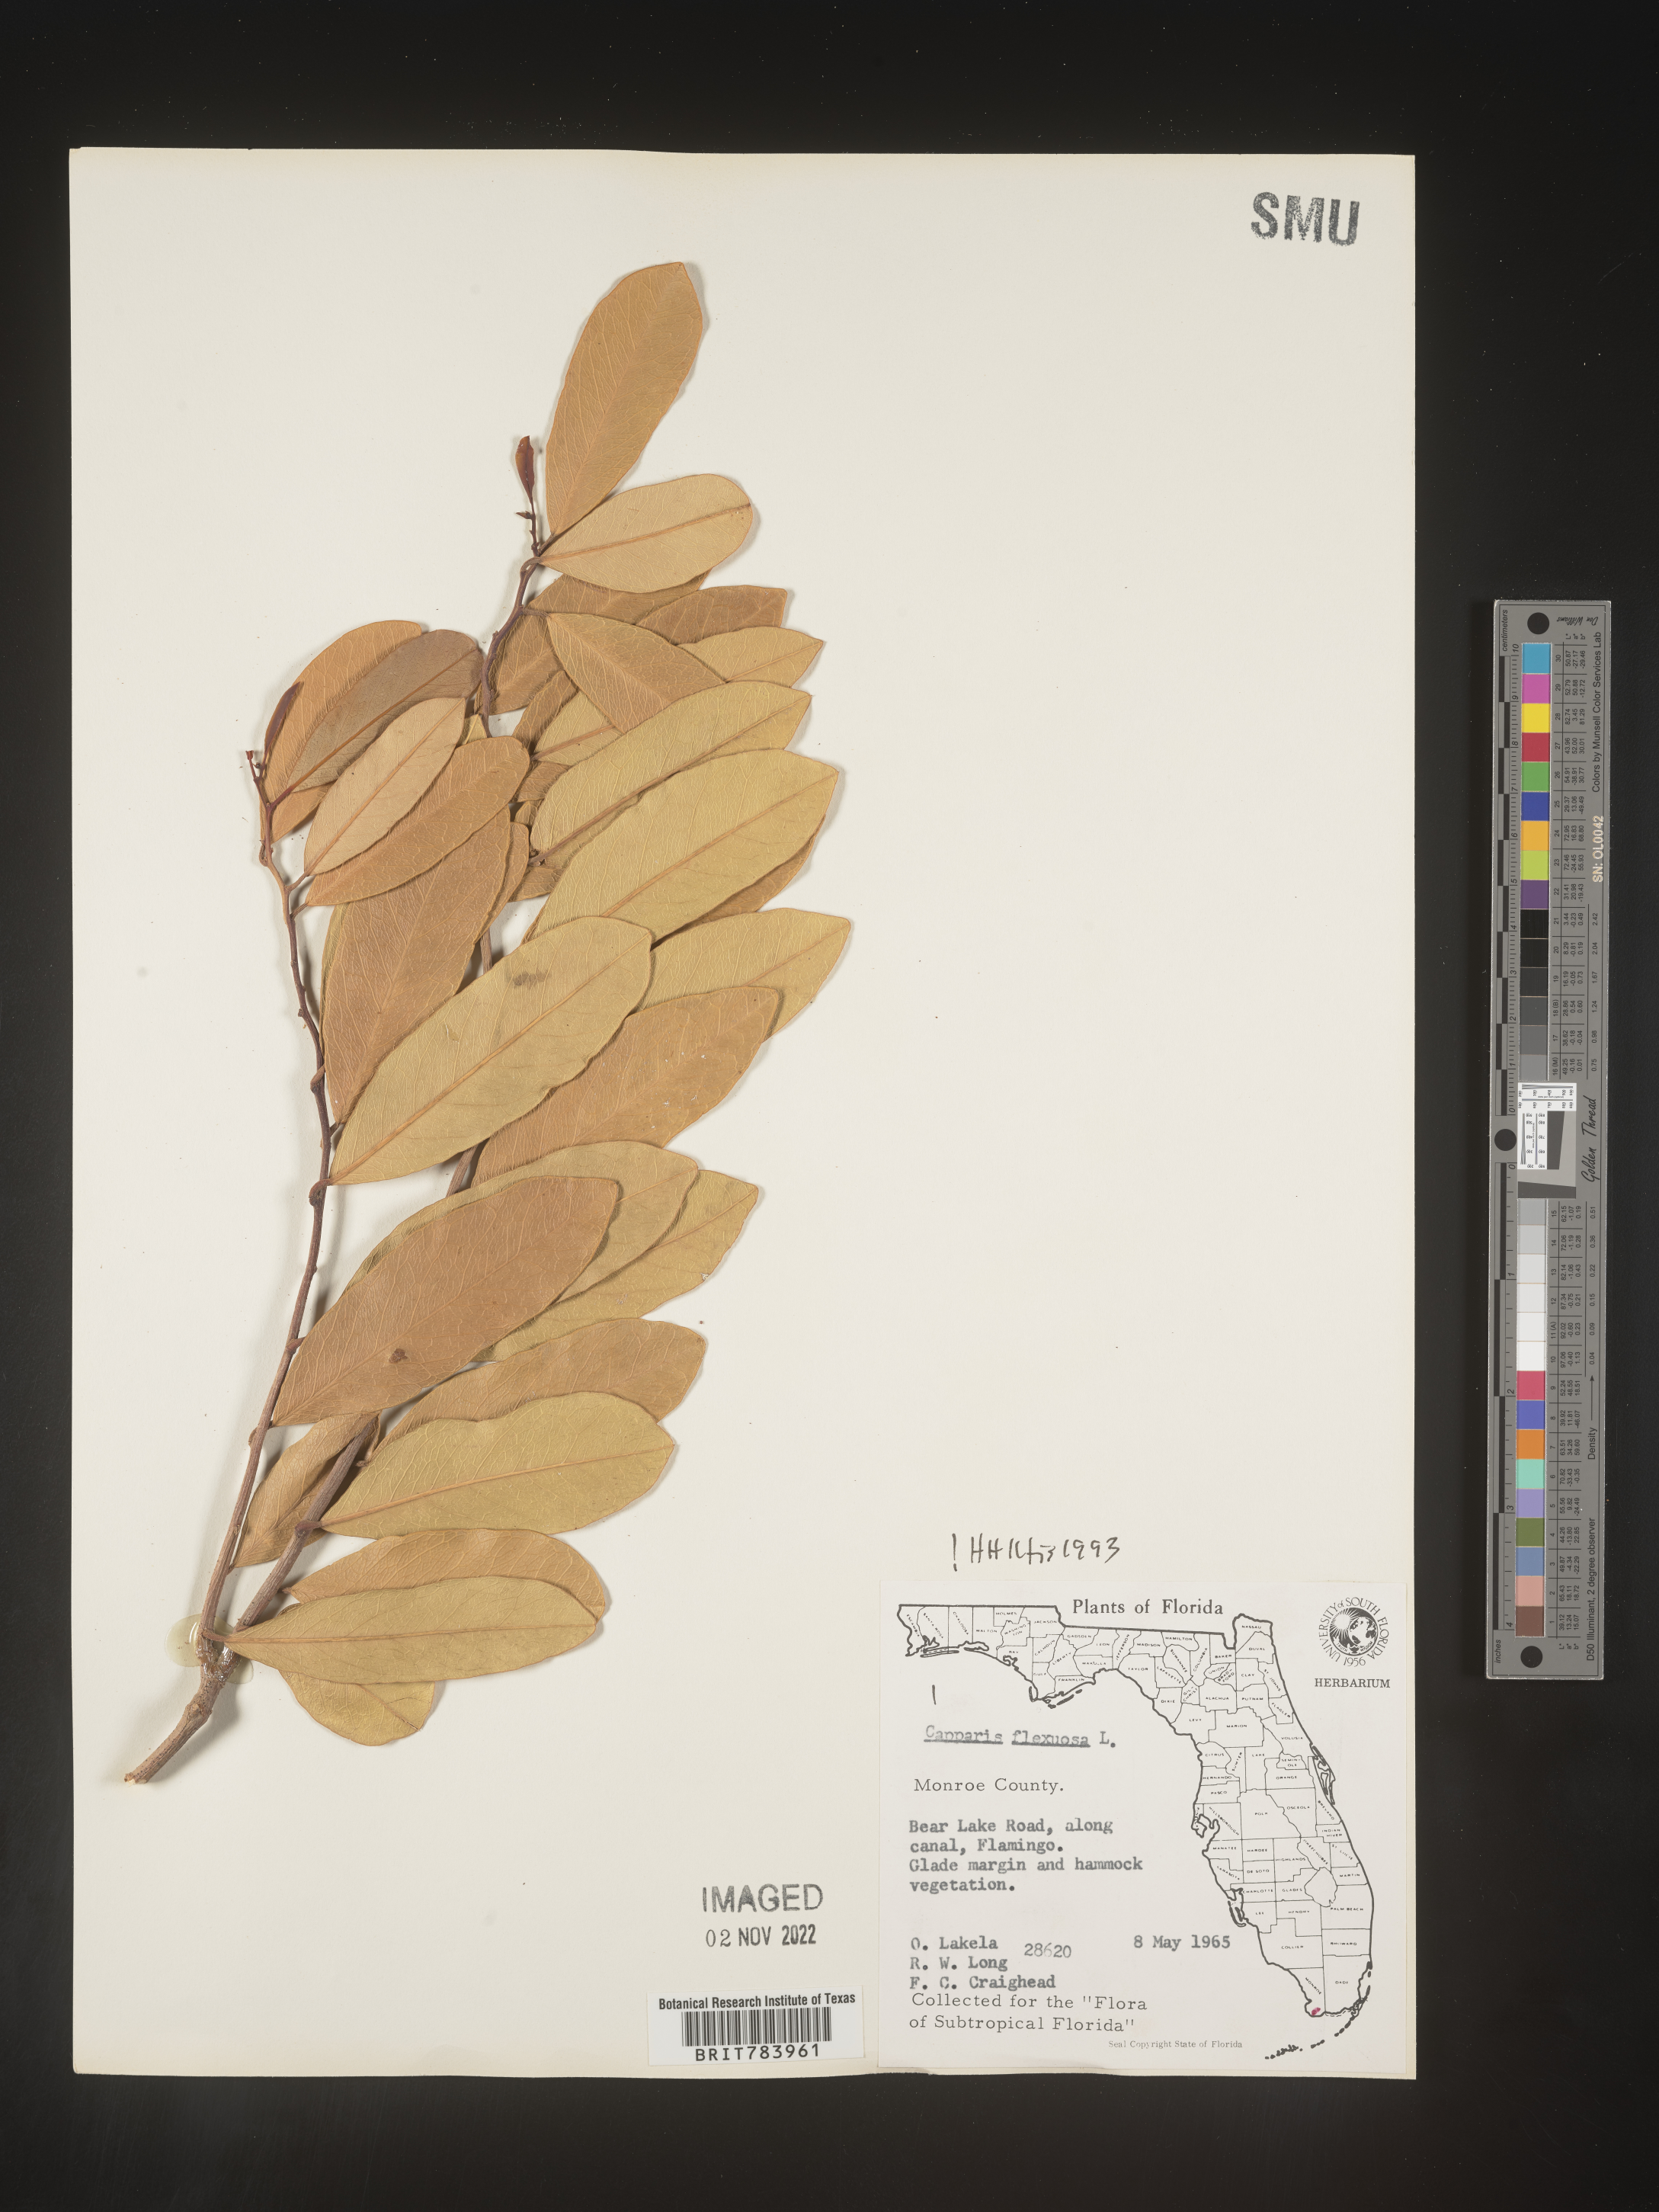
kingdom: Plantae
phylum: Tracheophyta
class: Magnoliopsida
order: Brassicales
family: Capparaceae
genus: Capparis
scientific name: Capparis
